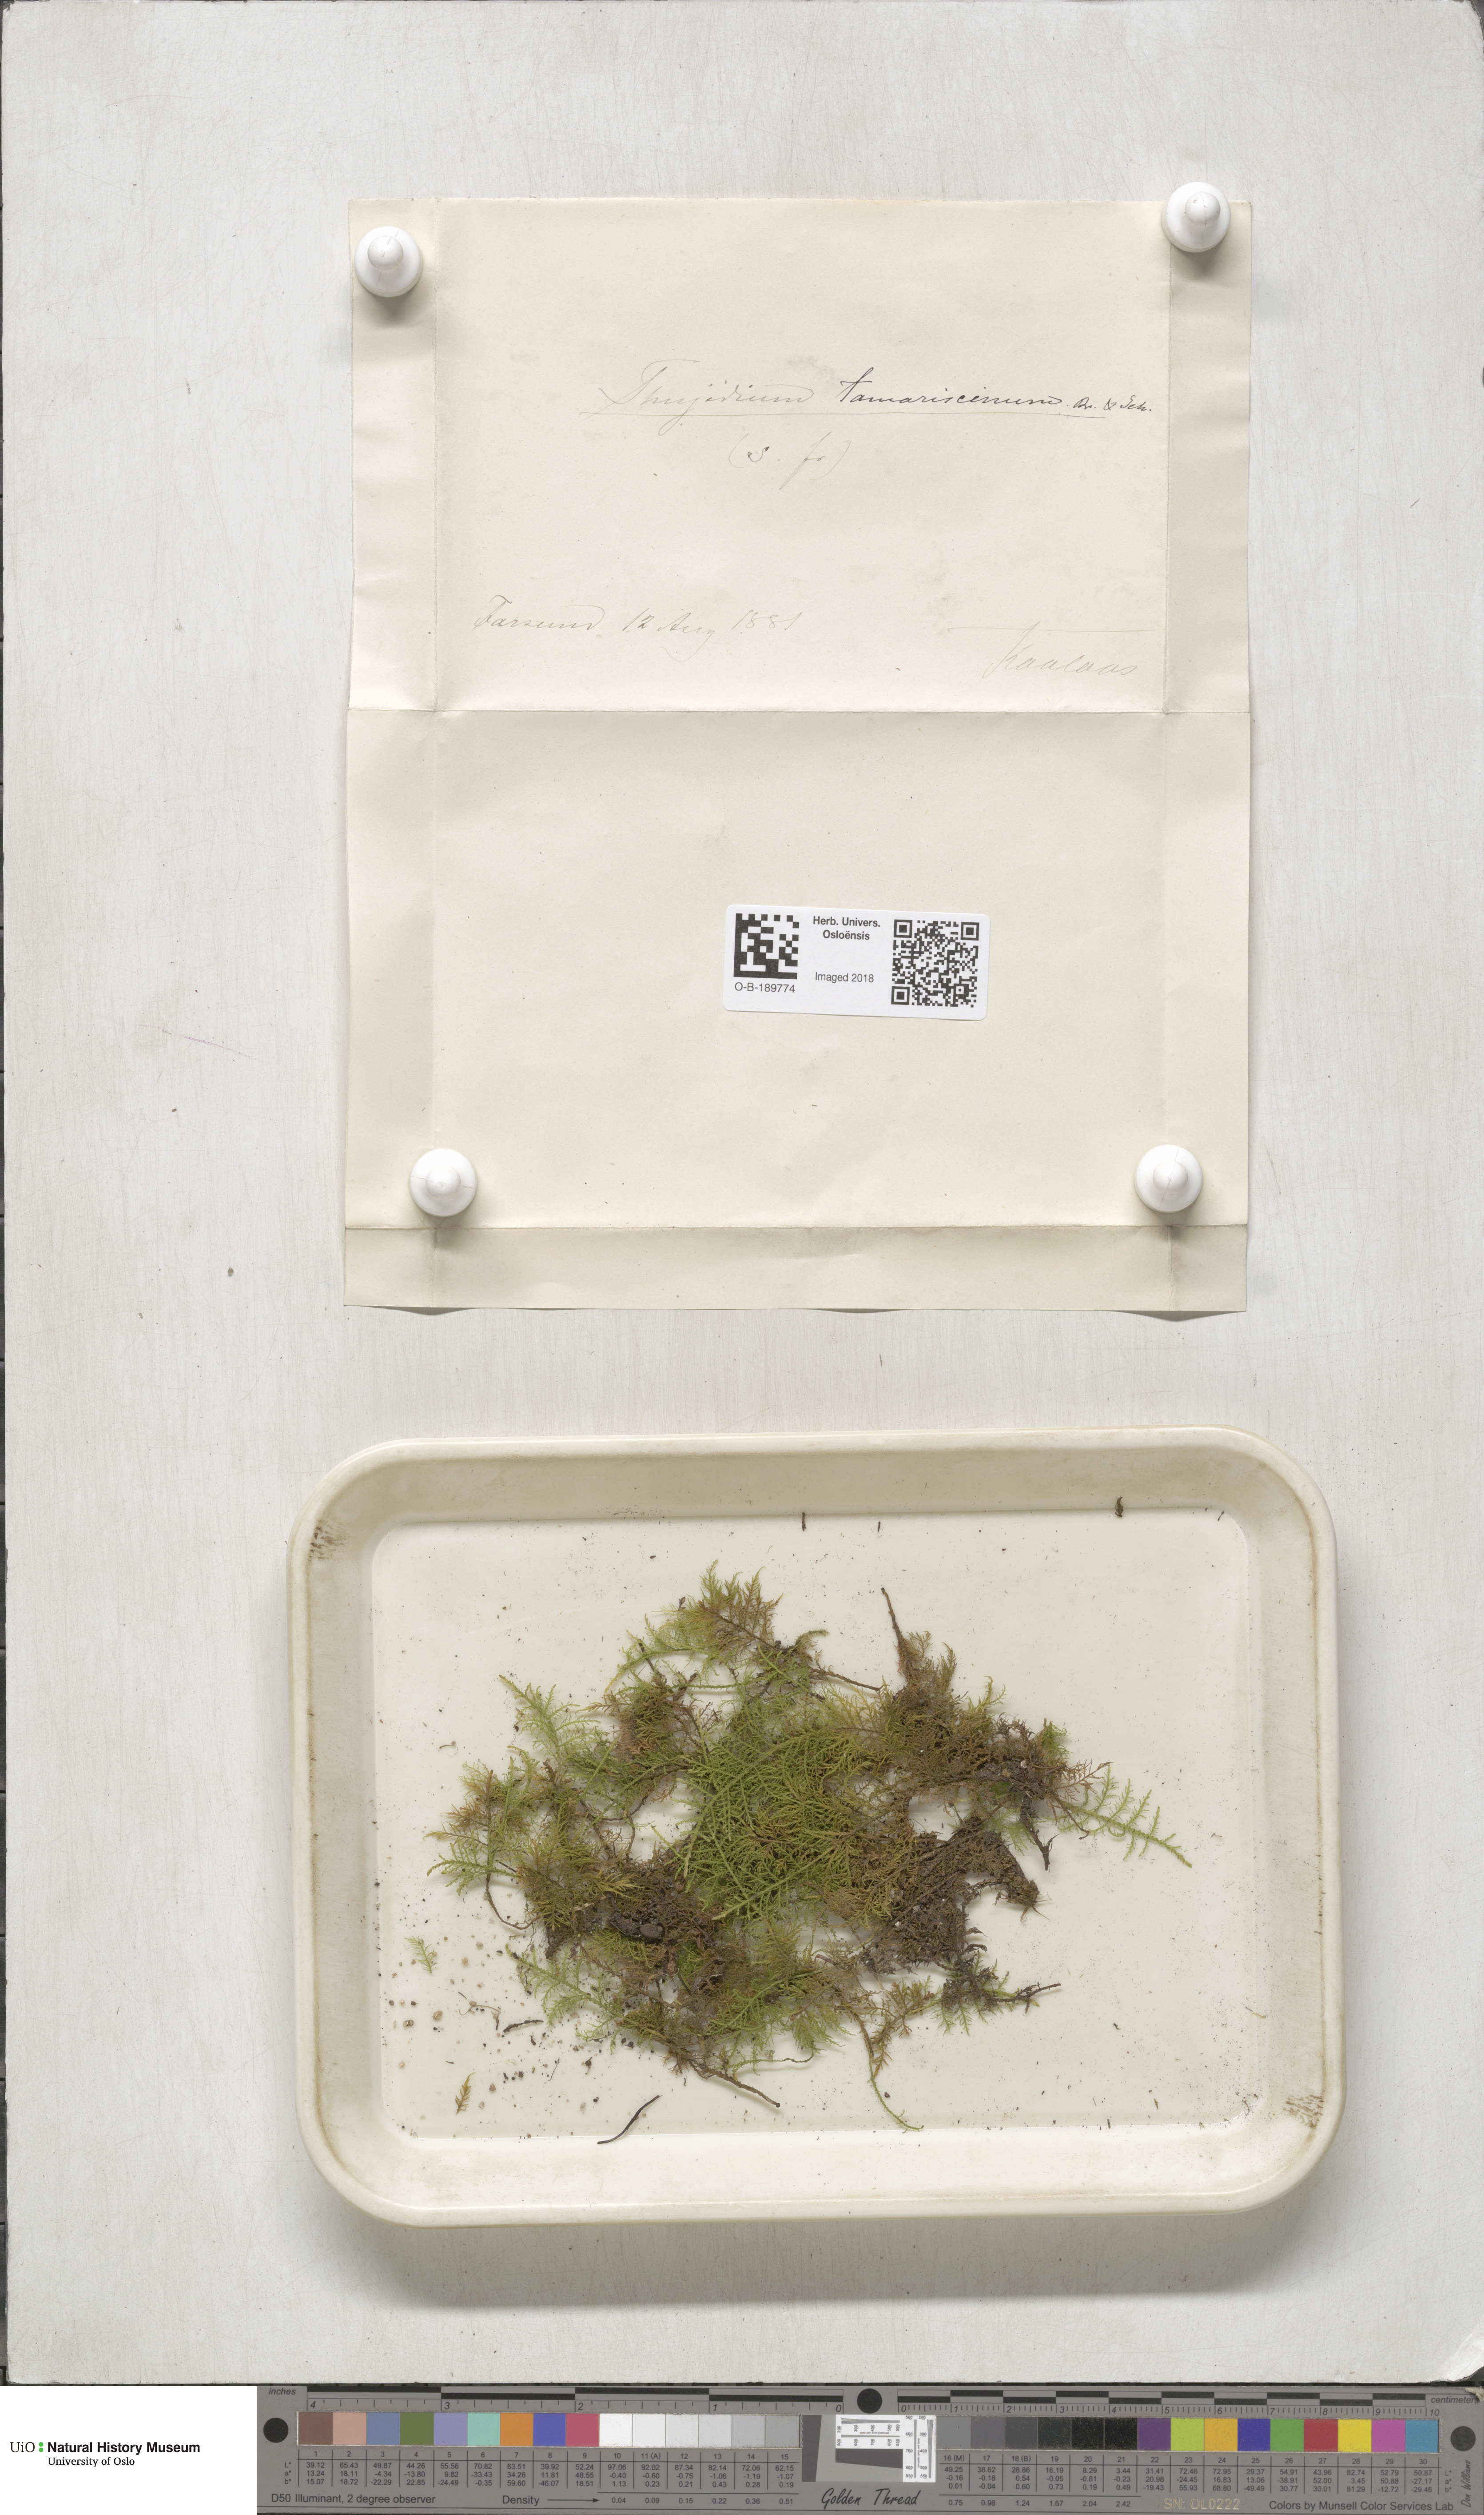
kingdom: Plantae
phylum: Bryophyta
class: Bryopsida
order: Hypnales
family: Thuidiaceae
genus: Thuidium
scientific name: Thuidium tamariscinum
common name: Common tamarisk-moss
